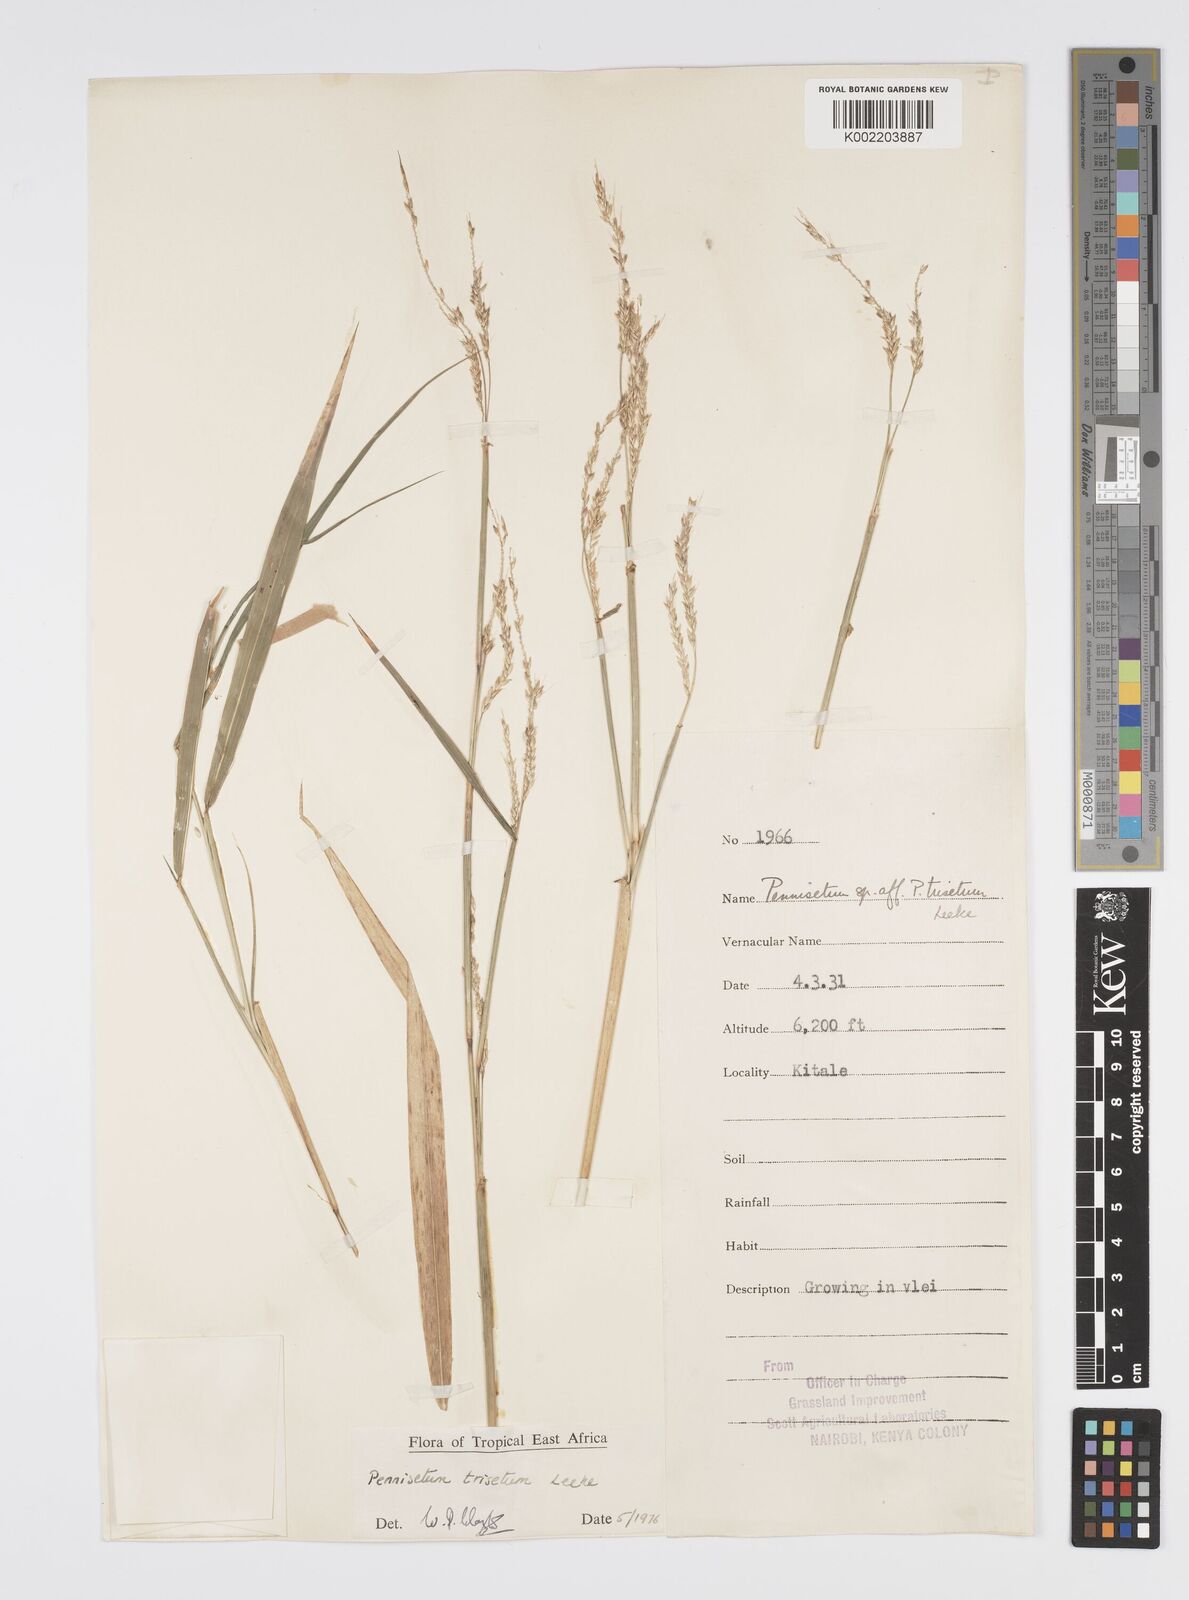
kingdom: Plantae
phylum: Tracheophyta
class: Liliopsida
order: Poales
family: Poaceae
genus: Cenchrus
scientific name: Cenchrus trisetus
